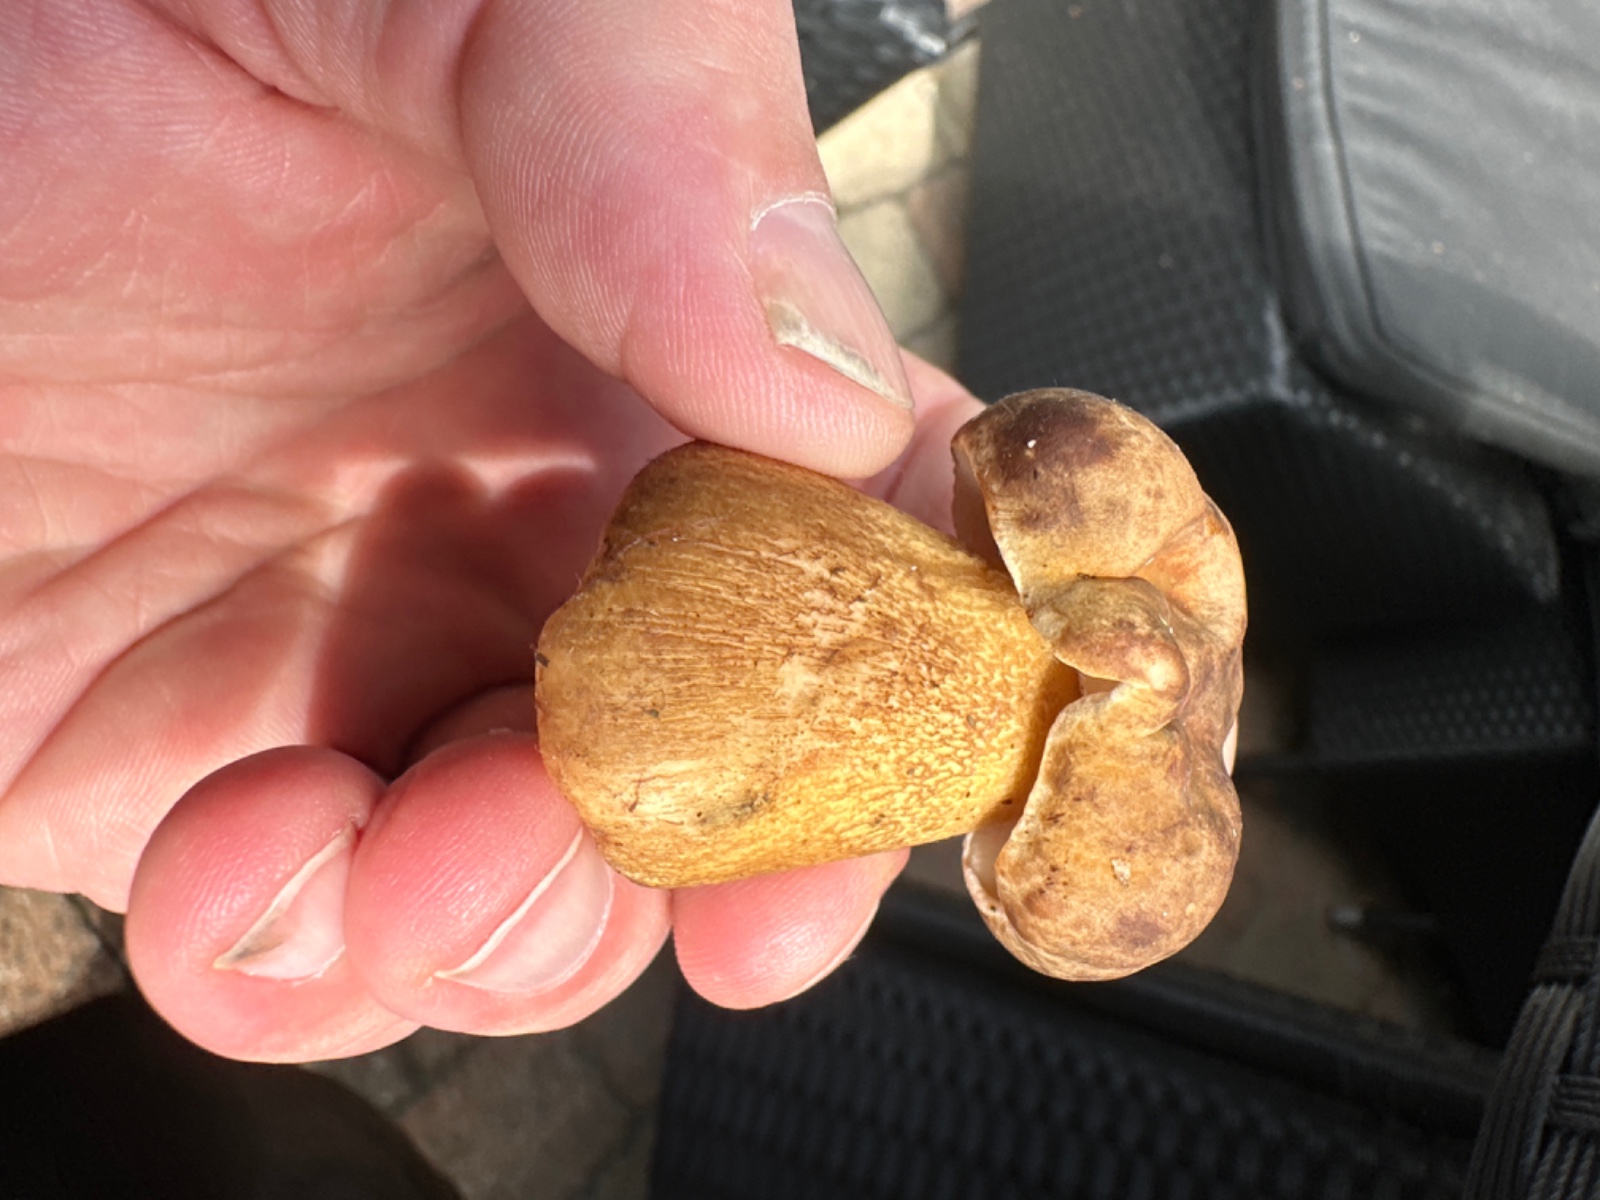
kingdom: Fungi
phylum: Basidiomycota
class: Agaricomycetes
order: Boletales
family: Boletaceae
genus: Tylopilus
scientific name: Tylopilus felleus
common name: galderørhat
